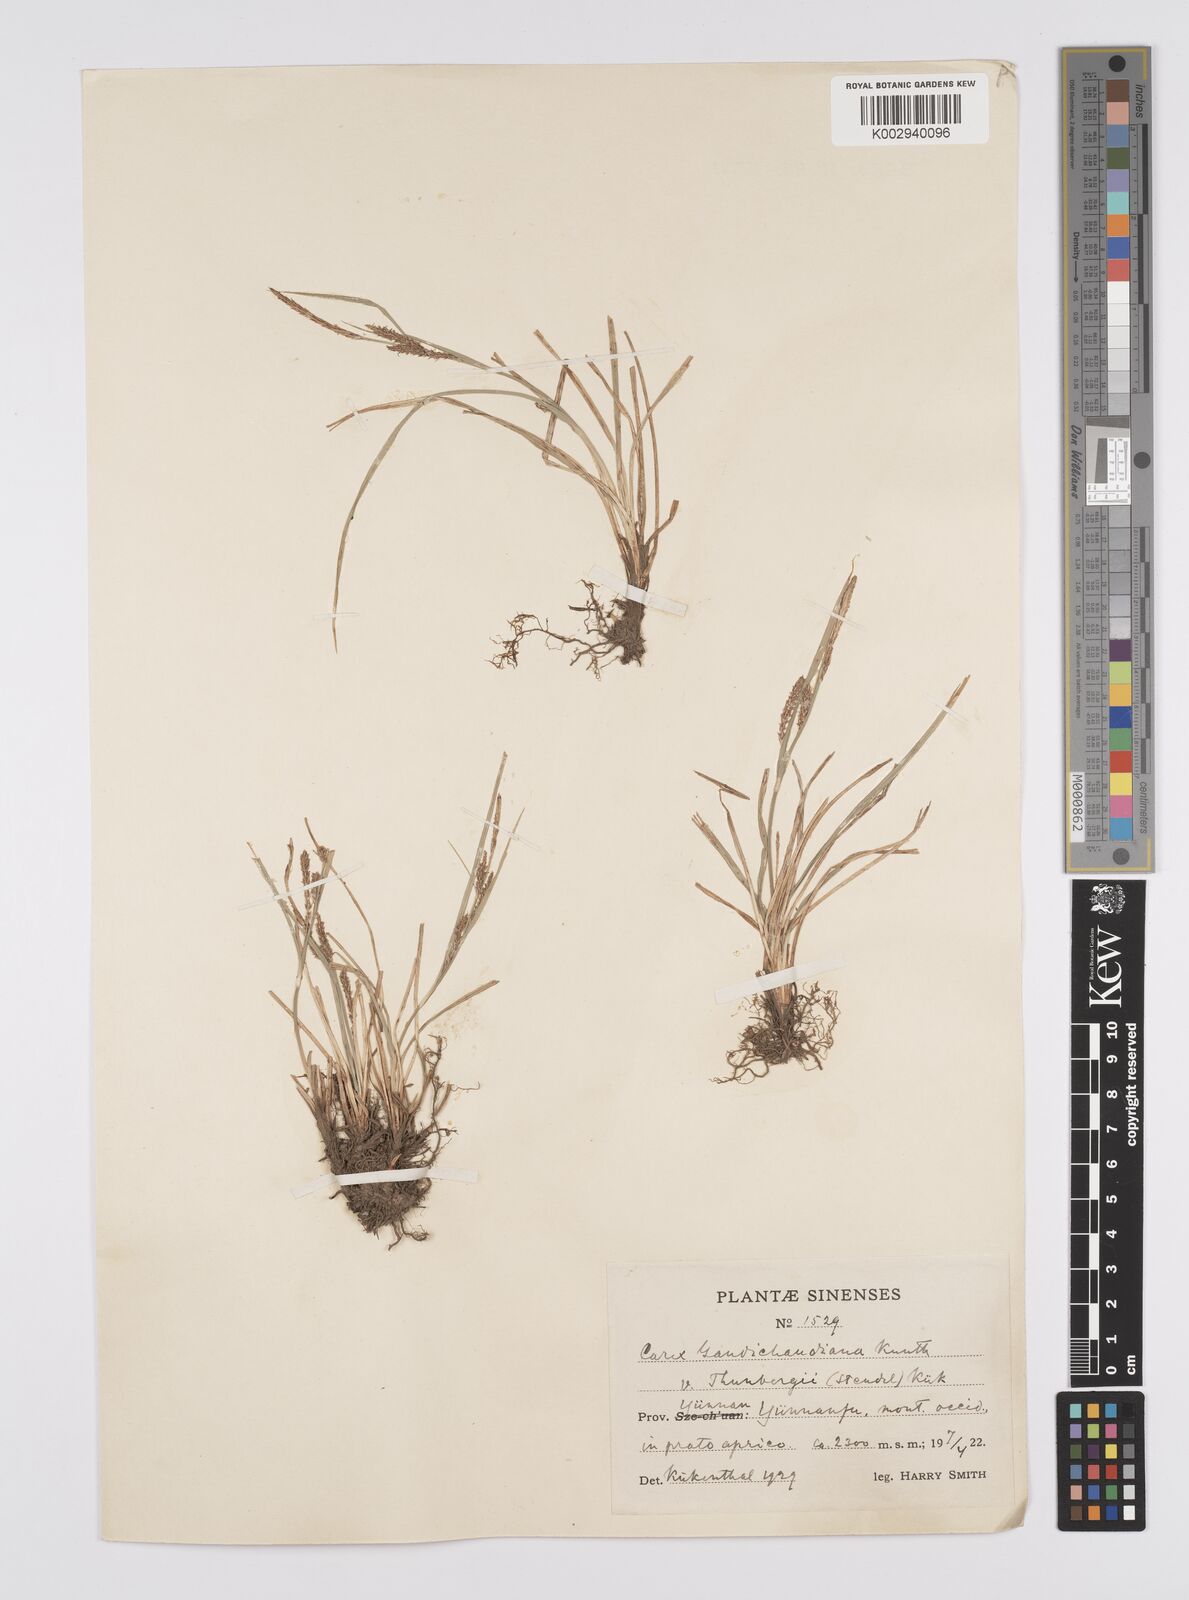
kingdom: Plantae
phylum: Tracheophyta
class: Liliopsida
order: Poales
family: Cyperaceae
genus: Carex
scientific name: Carex thunbergii
